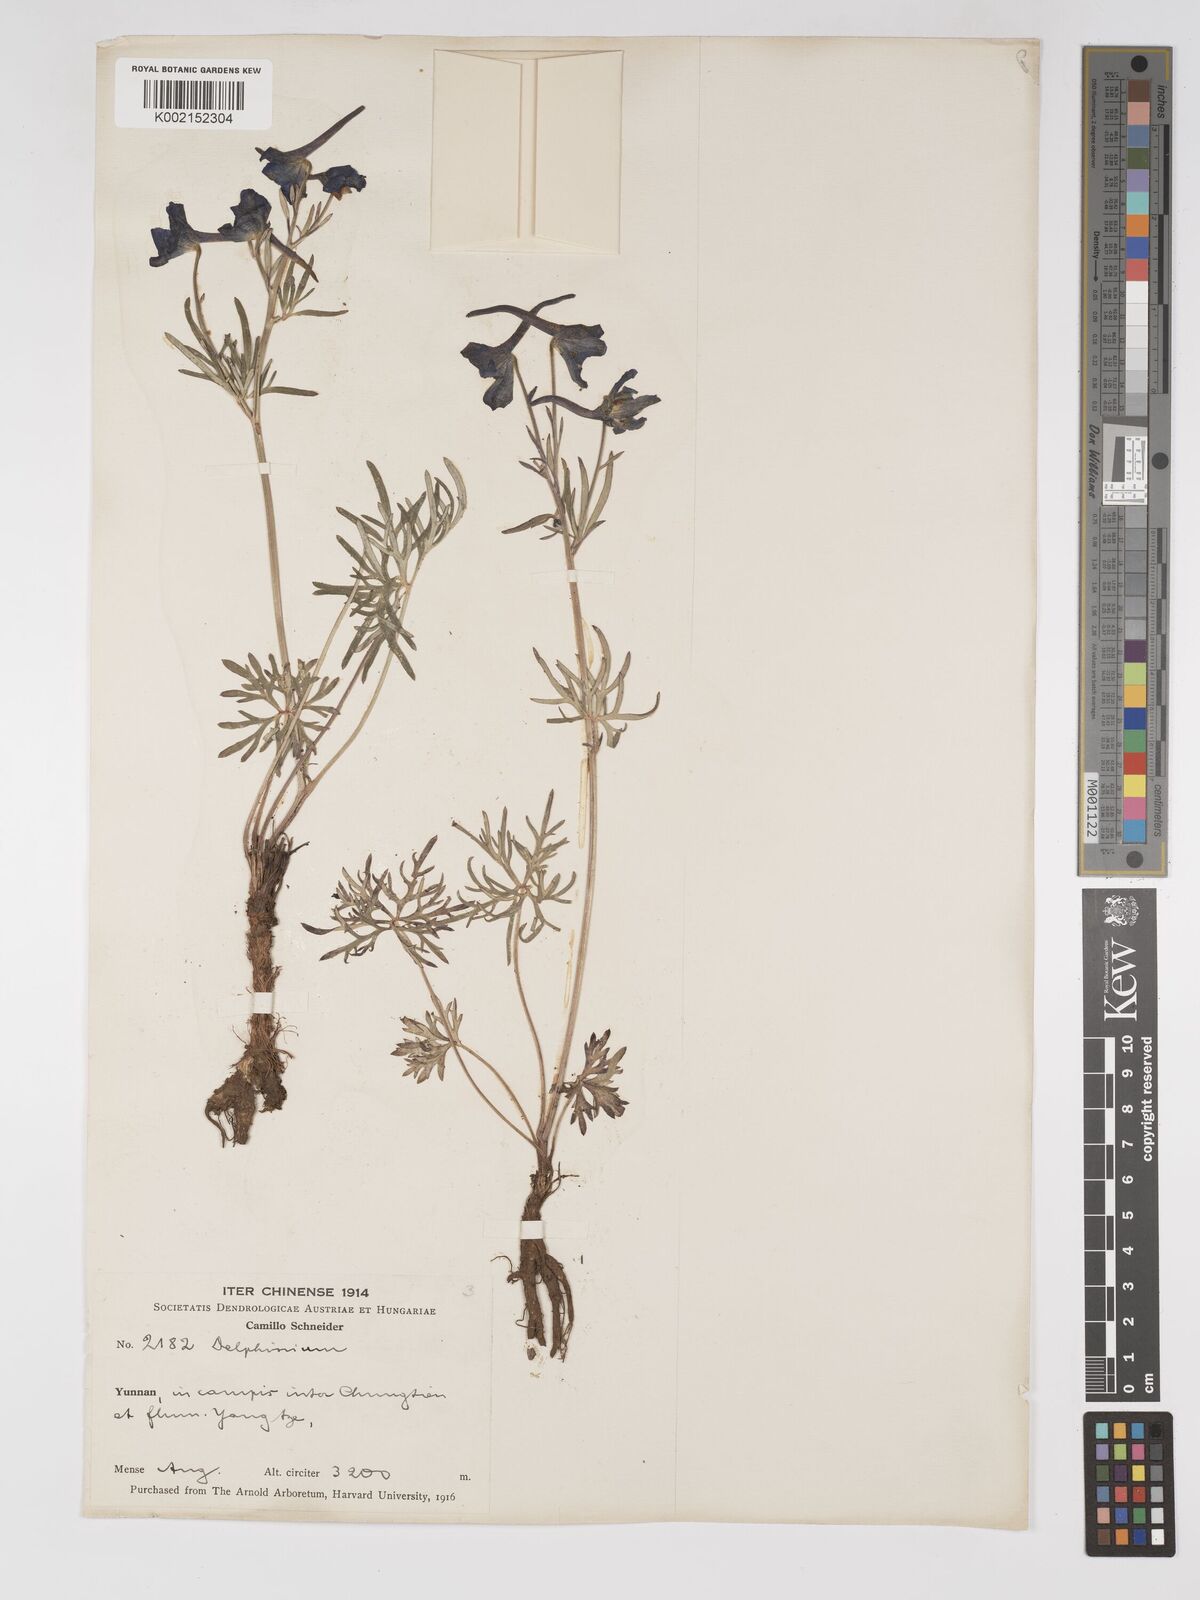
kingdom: Plantae
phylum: Tracheophyta
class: Magnoliopsida
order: Ranunculales
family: Ranunculaceae
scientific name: Ranunculaceae
